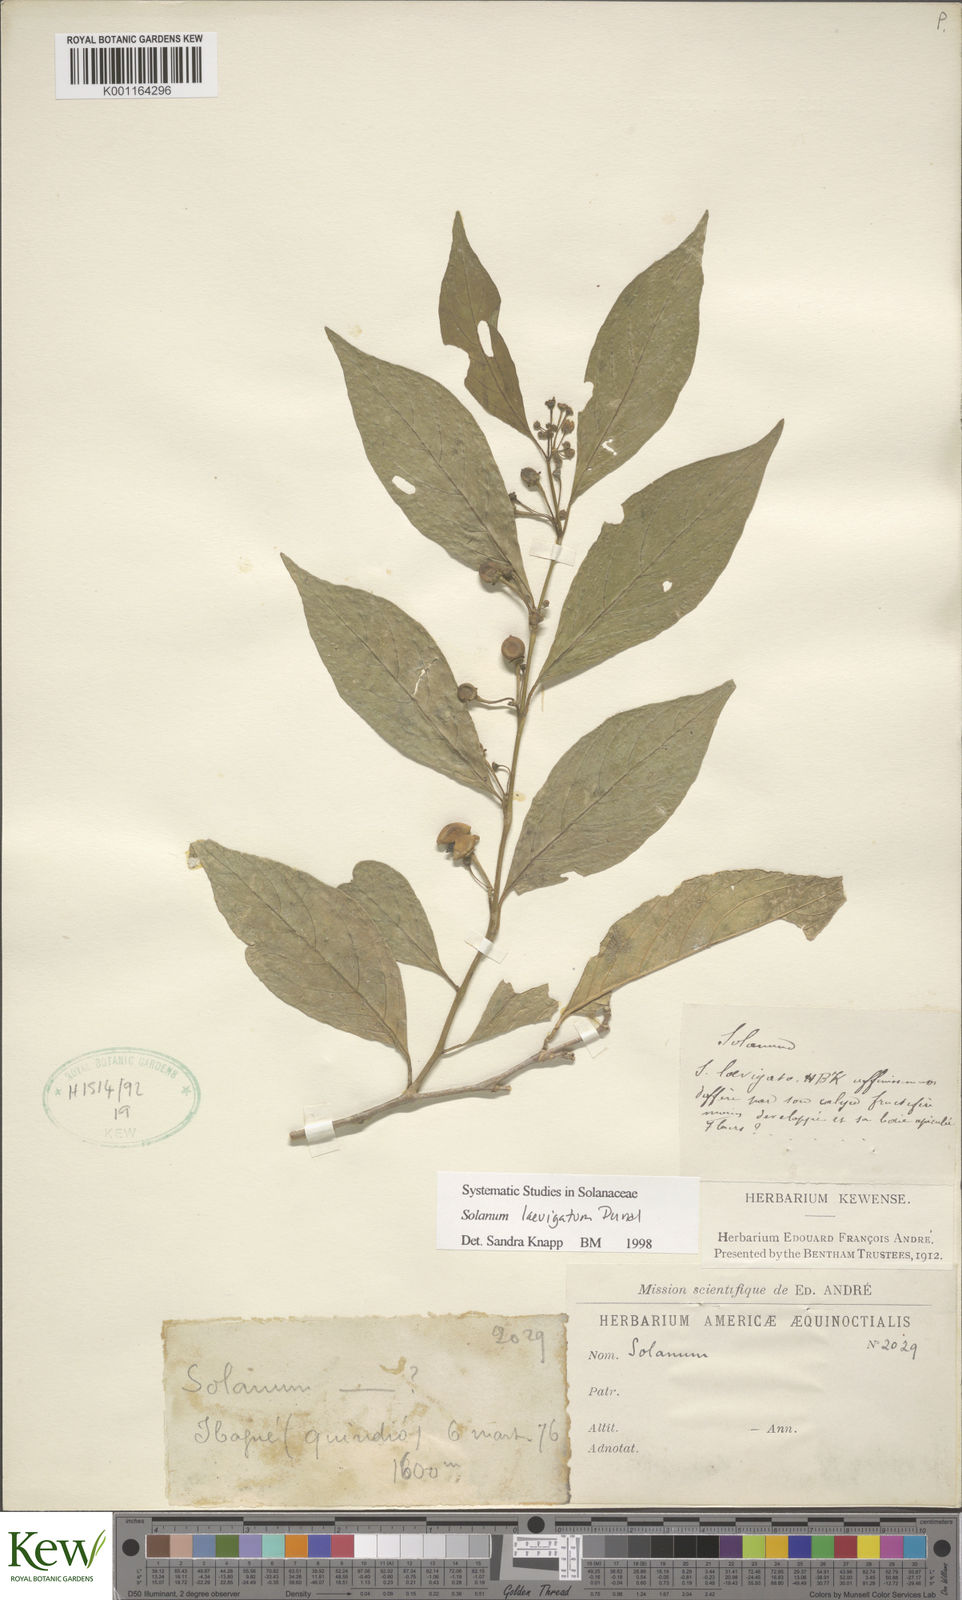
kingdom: Plantae
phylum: Tracheophyta
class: Magnoliopsida
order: Solanales
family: Solanaceae
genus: Solanum
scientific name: Solanum nudum
